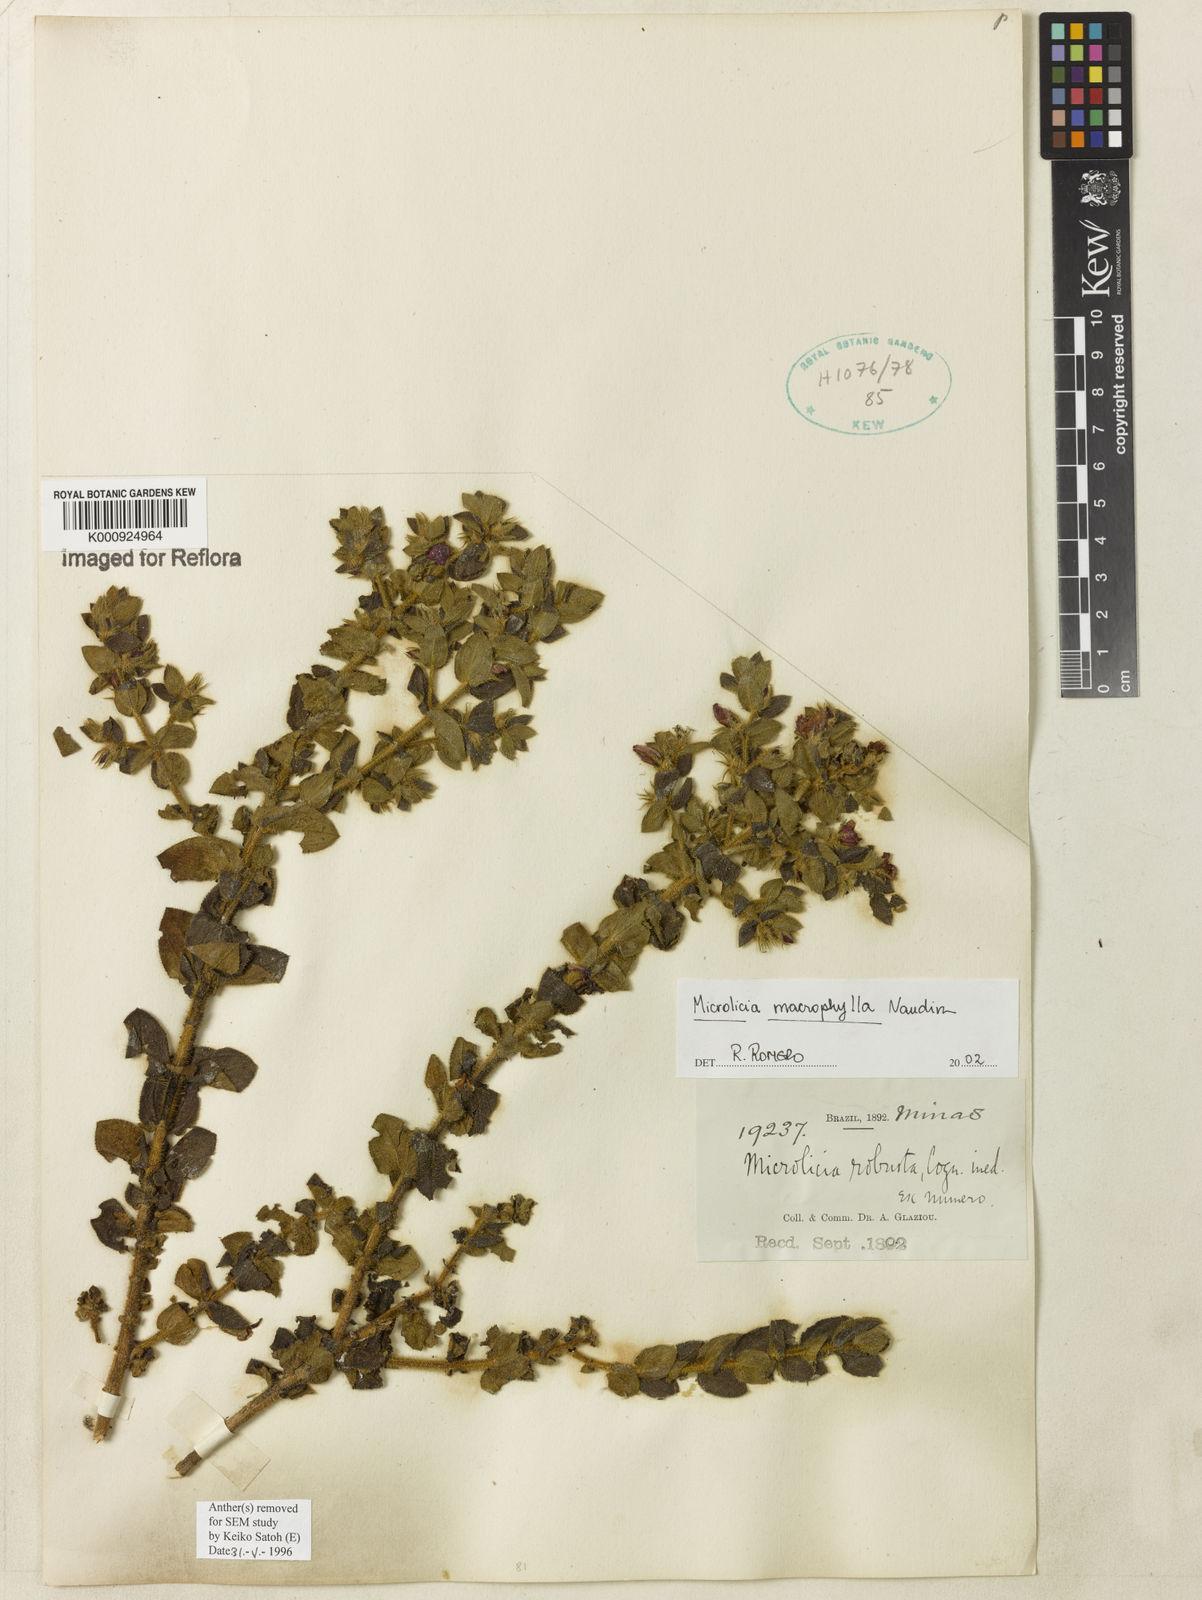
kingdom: Plantae
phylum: Tracheophyta
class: Magnoliopsida
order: Myrtales
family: Melastomataceae
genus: Microlicia
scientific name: Microlicia macrophylla
